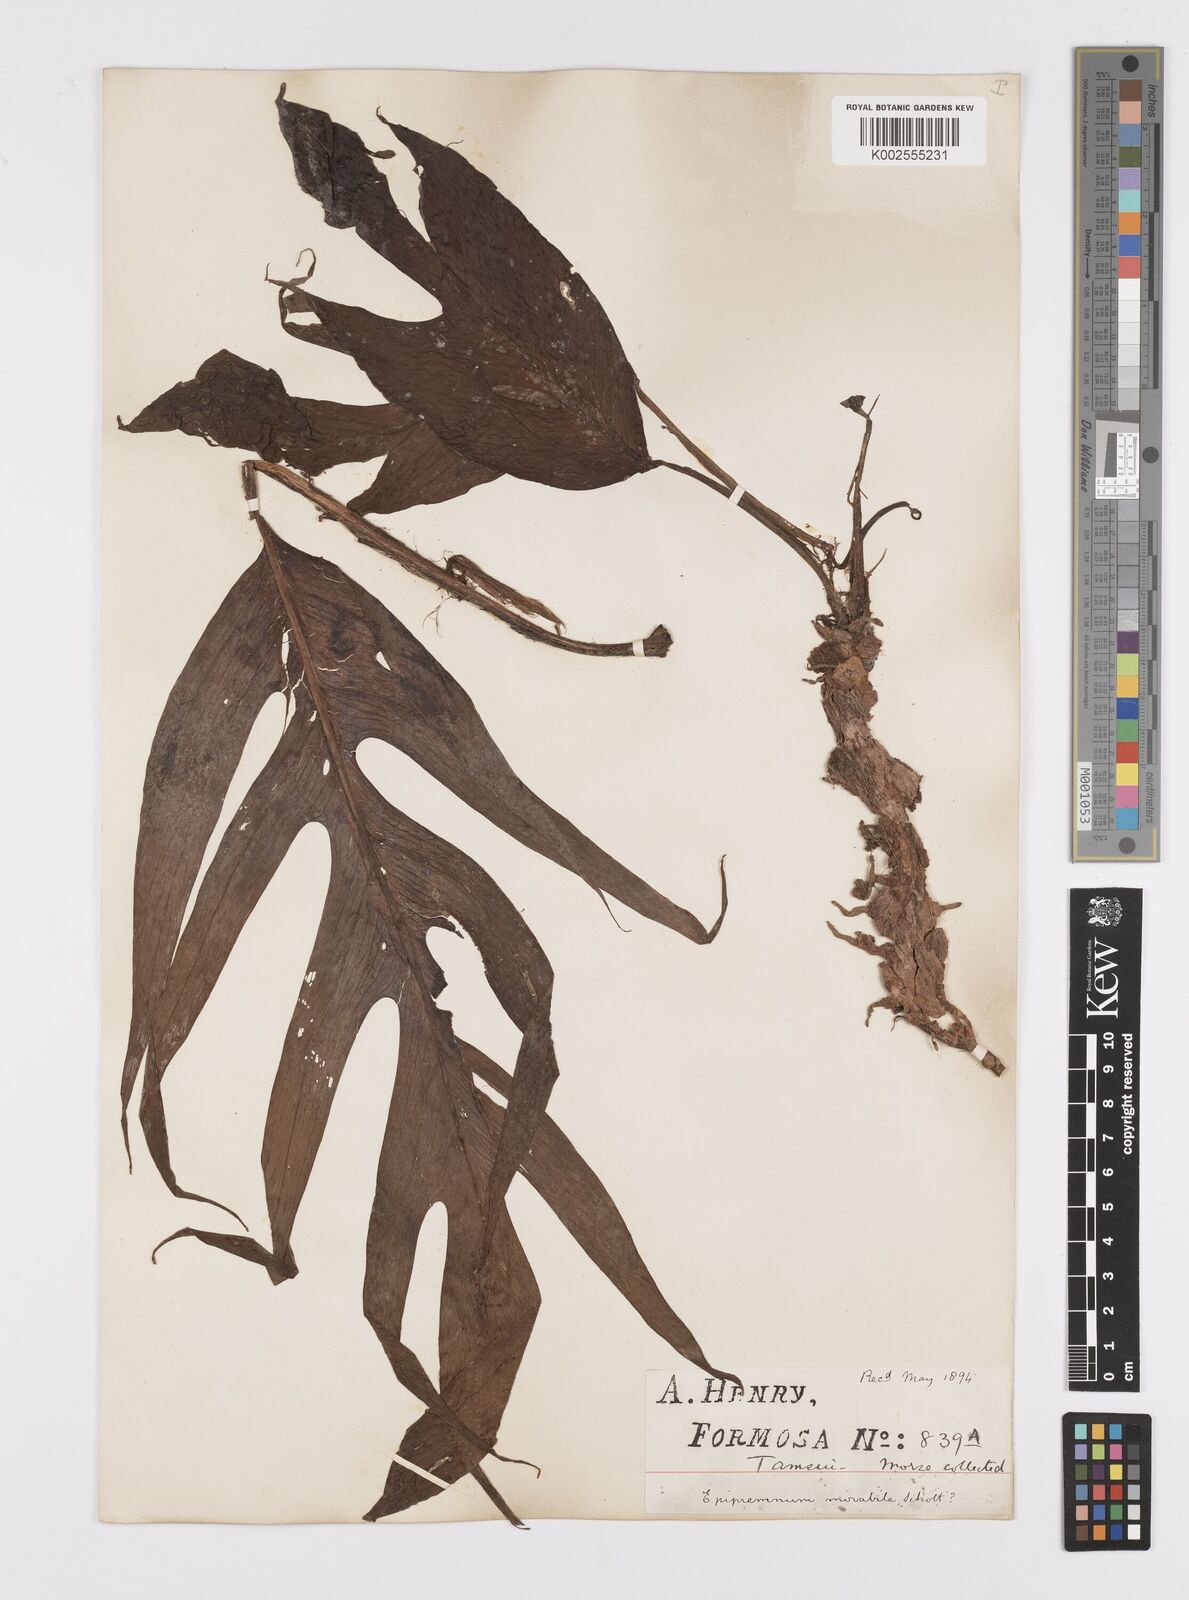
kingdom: Plantae
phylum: Tracheophyta
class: Liliopsida
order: Alismatales
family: Araceae
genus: Epipremnum
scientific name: Epipremnum pinnatum
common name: Centipede tongavine
